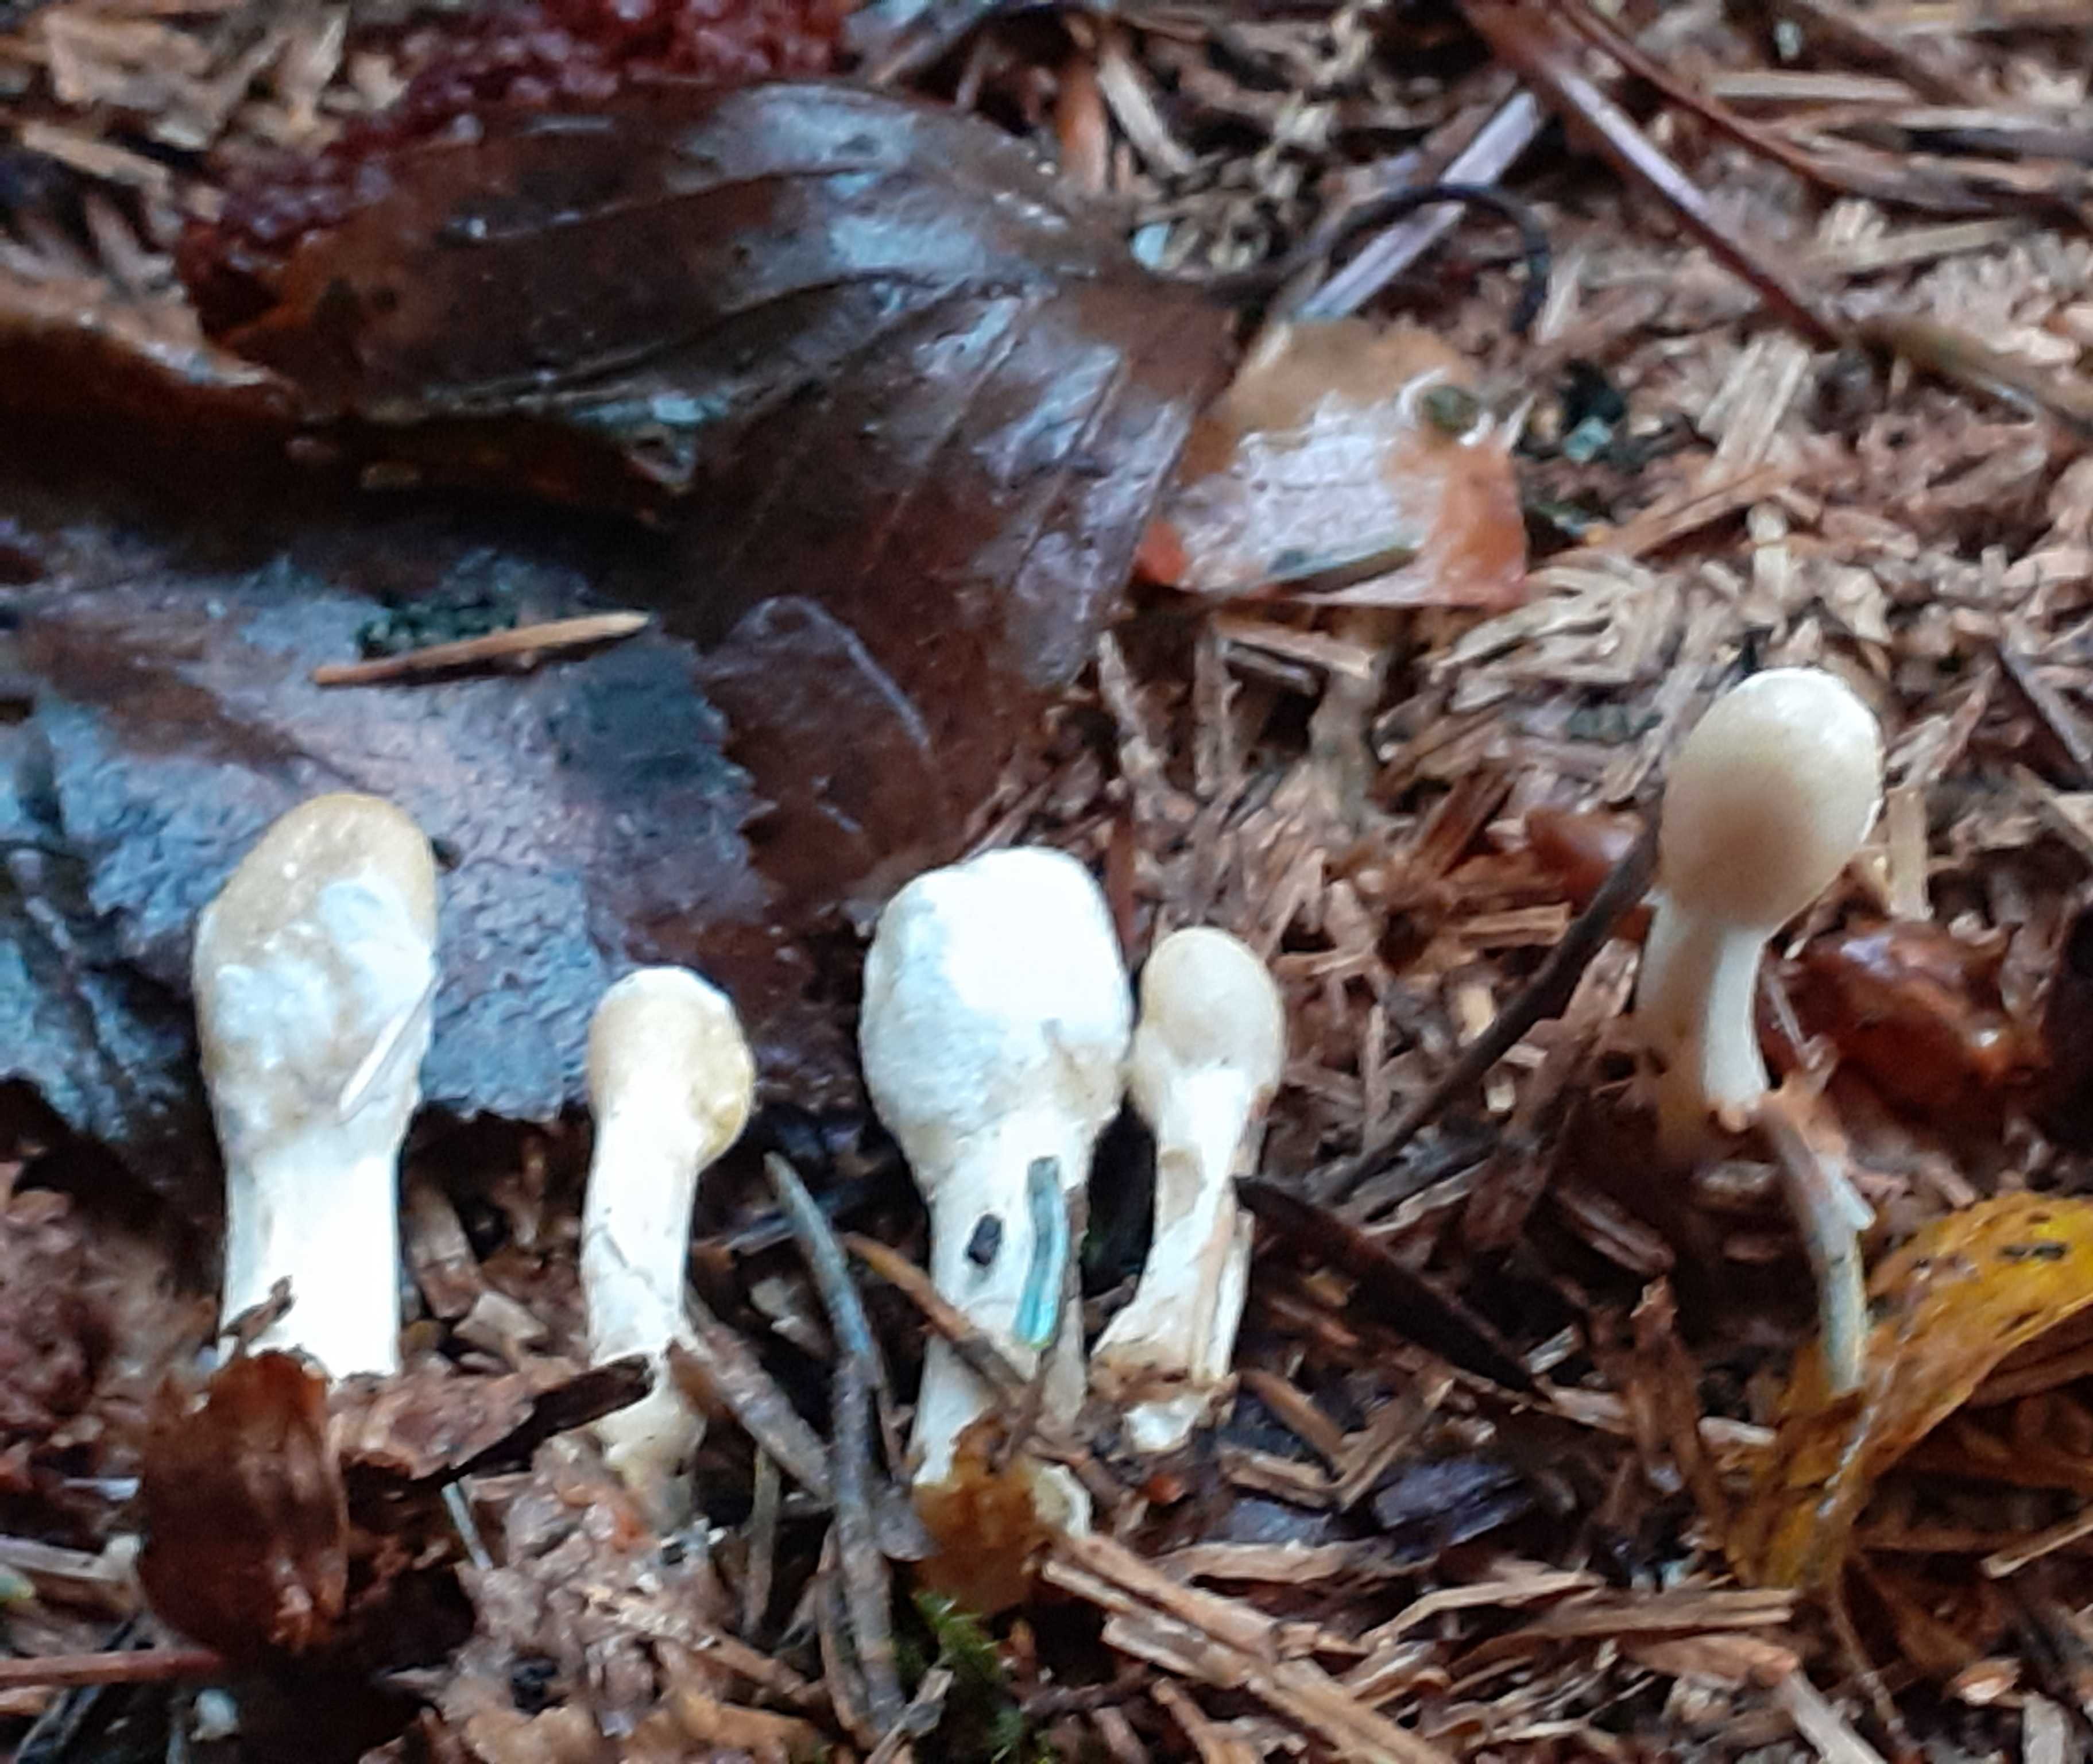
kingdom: Fungi
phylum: Ascomycota
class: Sordariomycetes
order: Hypocreales
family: Hypocreaceae
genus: Trichoderma
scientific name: Trichoderma leucopus
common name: lysstokket kødkerne
